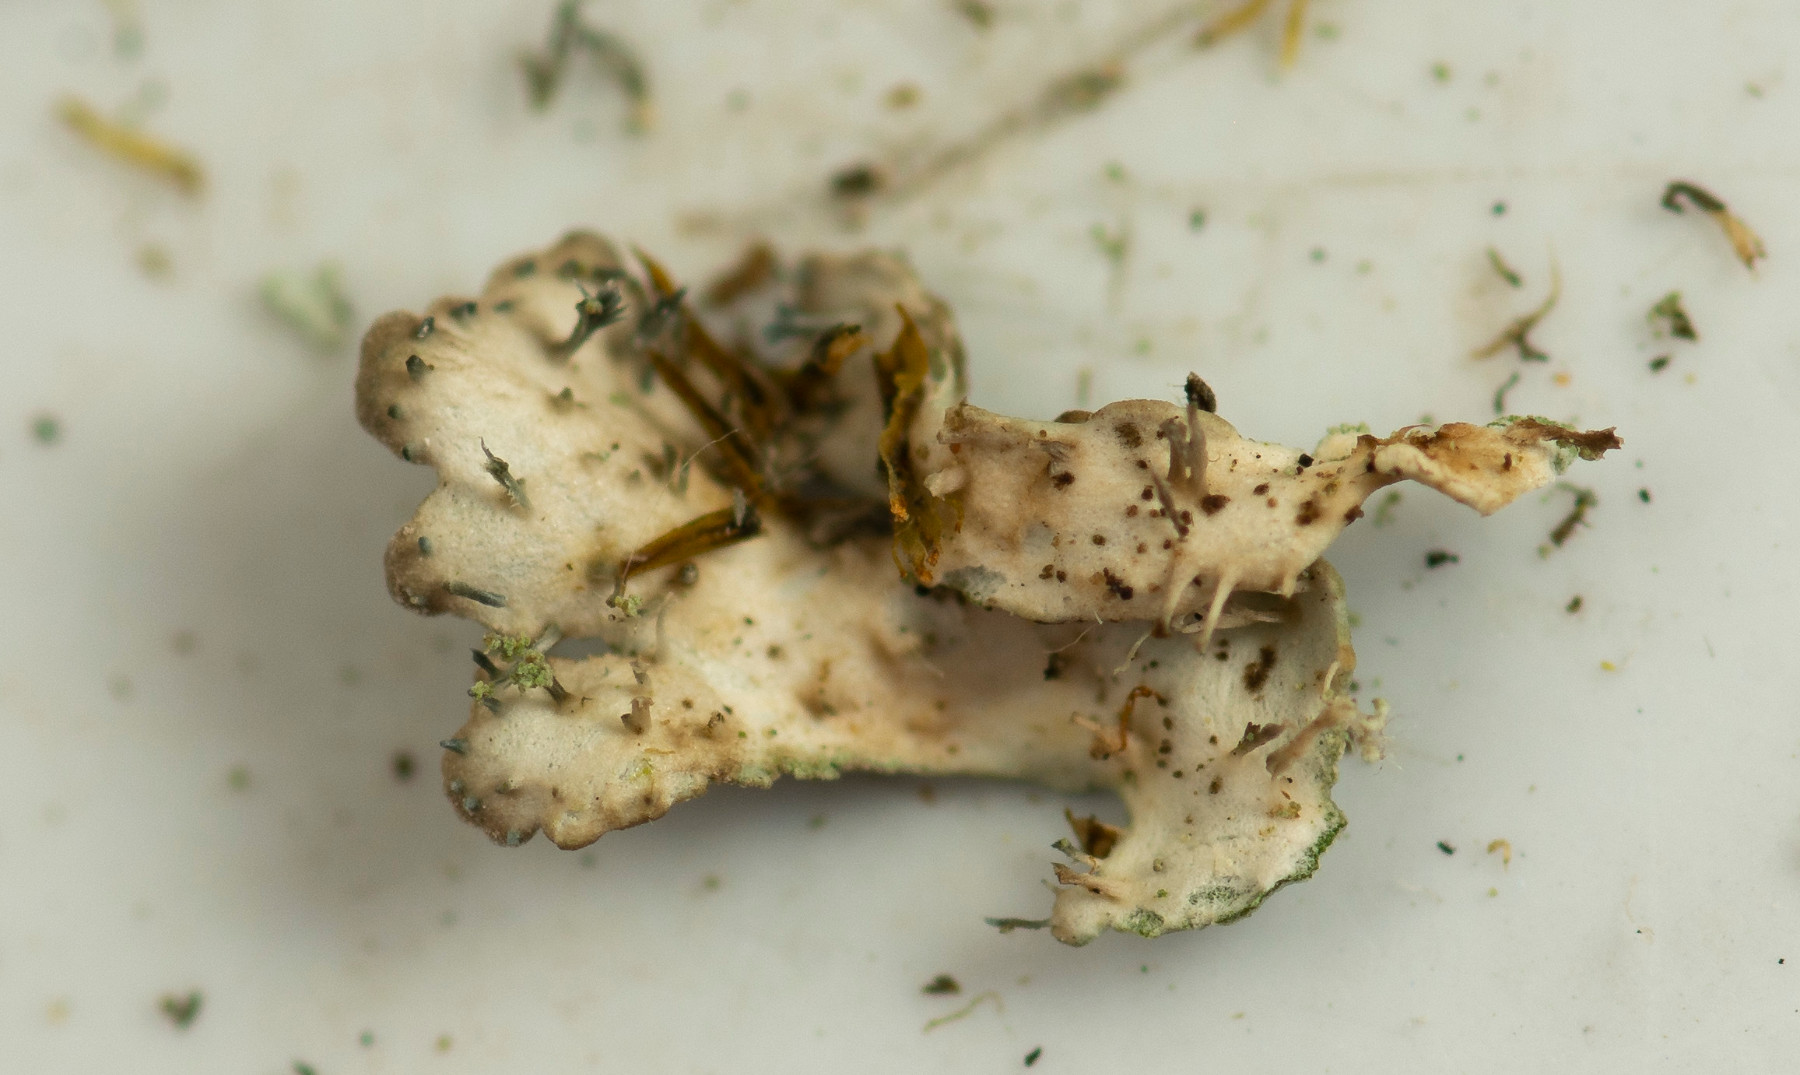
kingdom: Fungi
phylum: Ascomycota
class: Lecanoromycetes
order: Caliciales
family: Physciaceae
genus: Poeltonia
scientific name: Poeltonia grisea
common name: hvidgrå dugrosetlav
